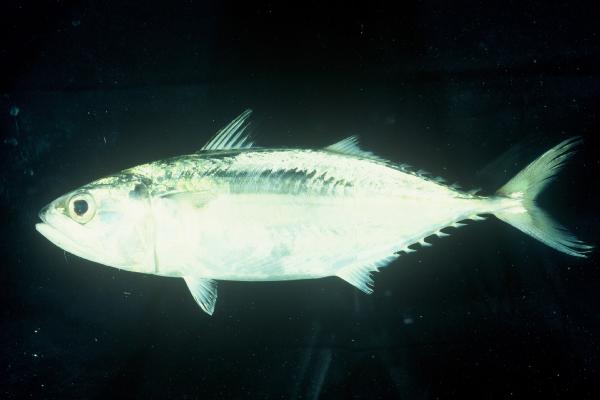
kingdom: Animalia
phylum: Chordata
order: Perciformes
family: Scombridae
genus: Rastrelliger
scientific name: Rastrelliger kanagurta
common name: Indian mackerel
